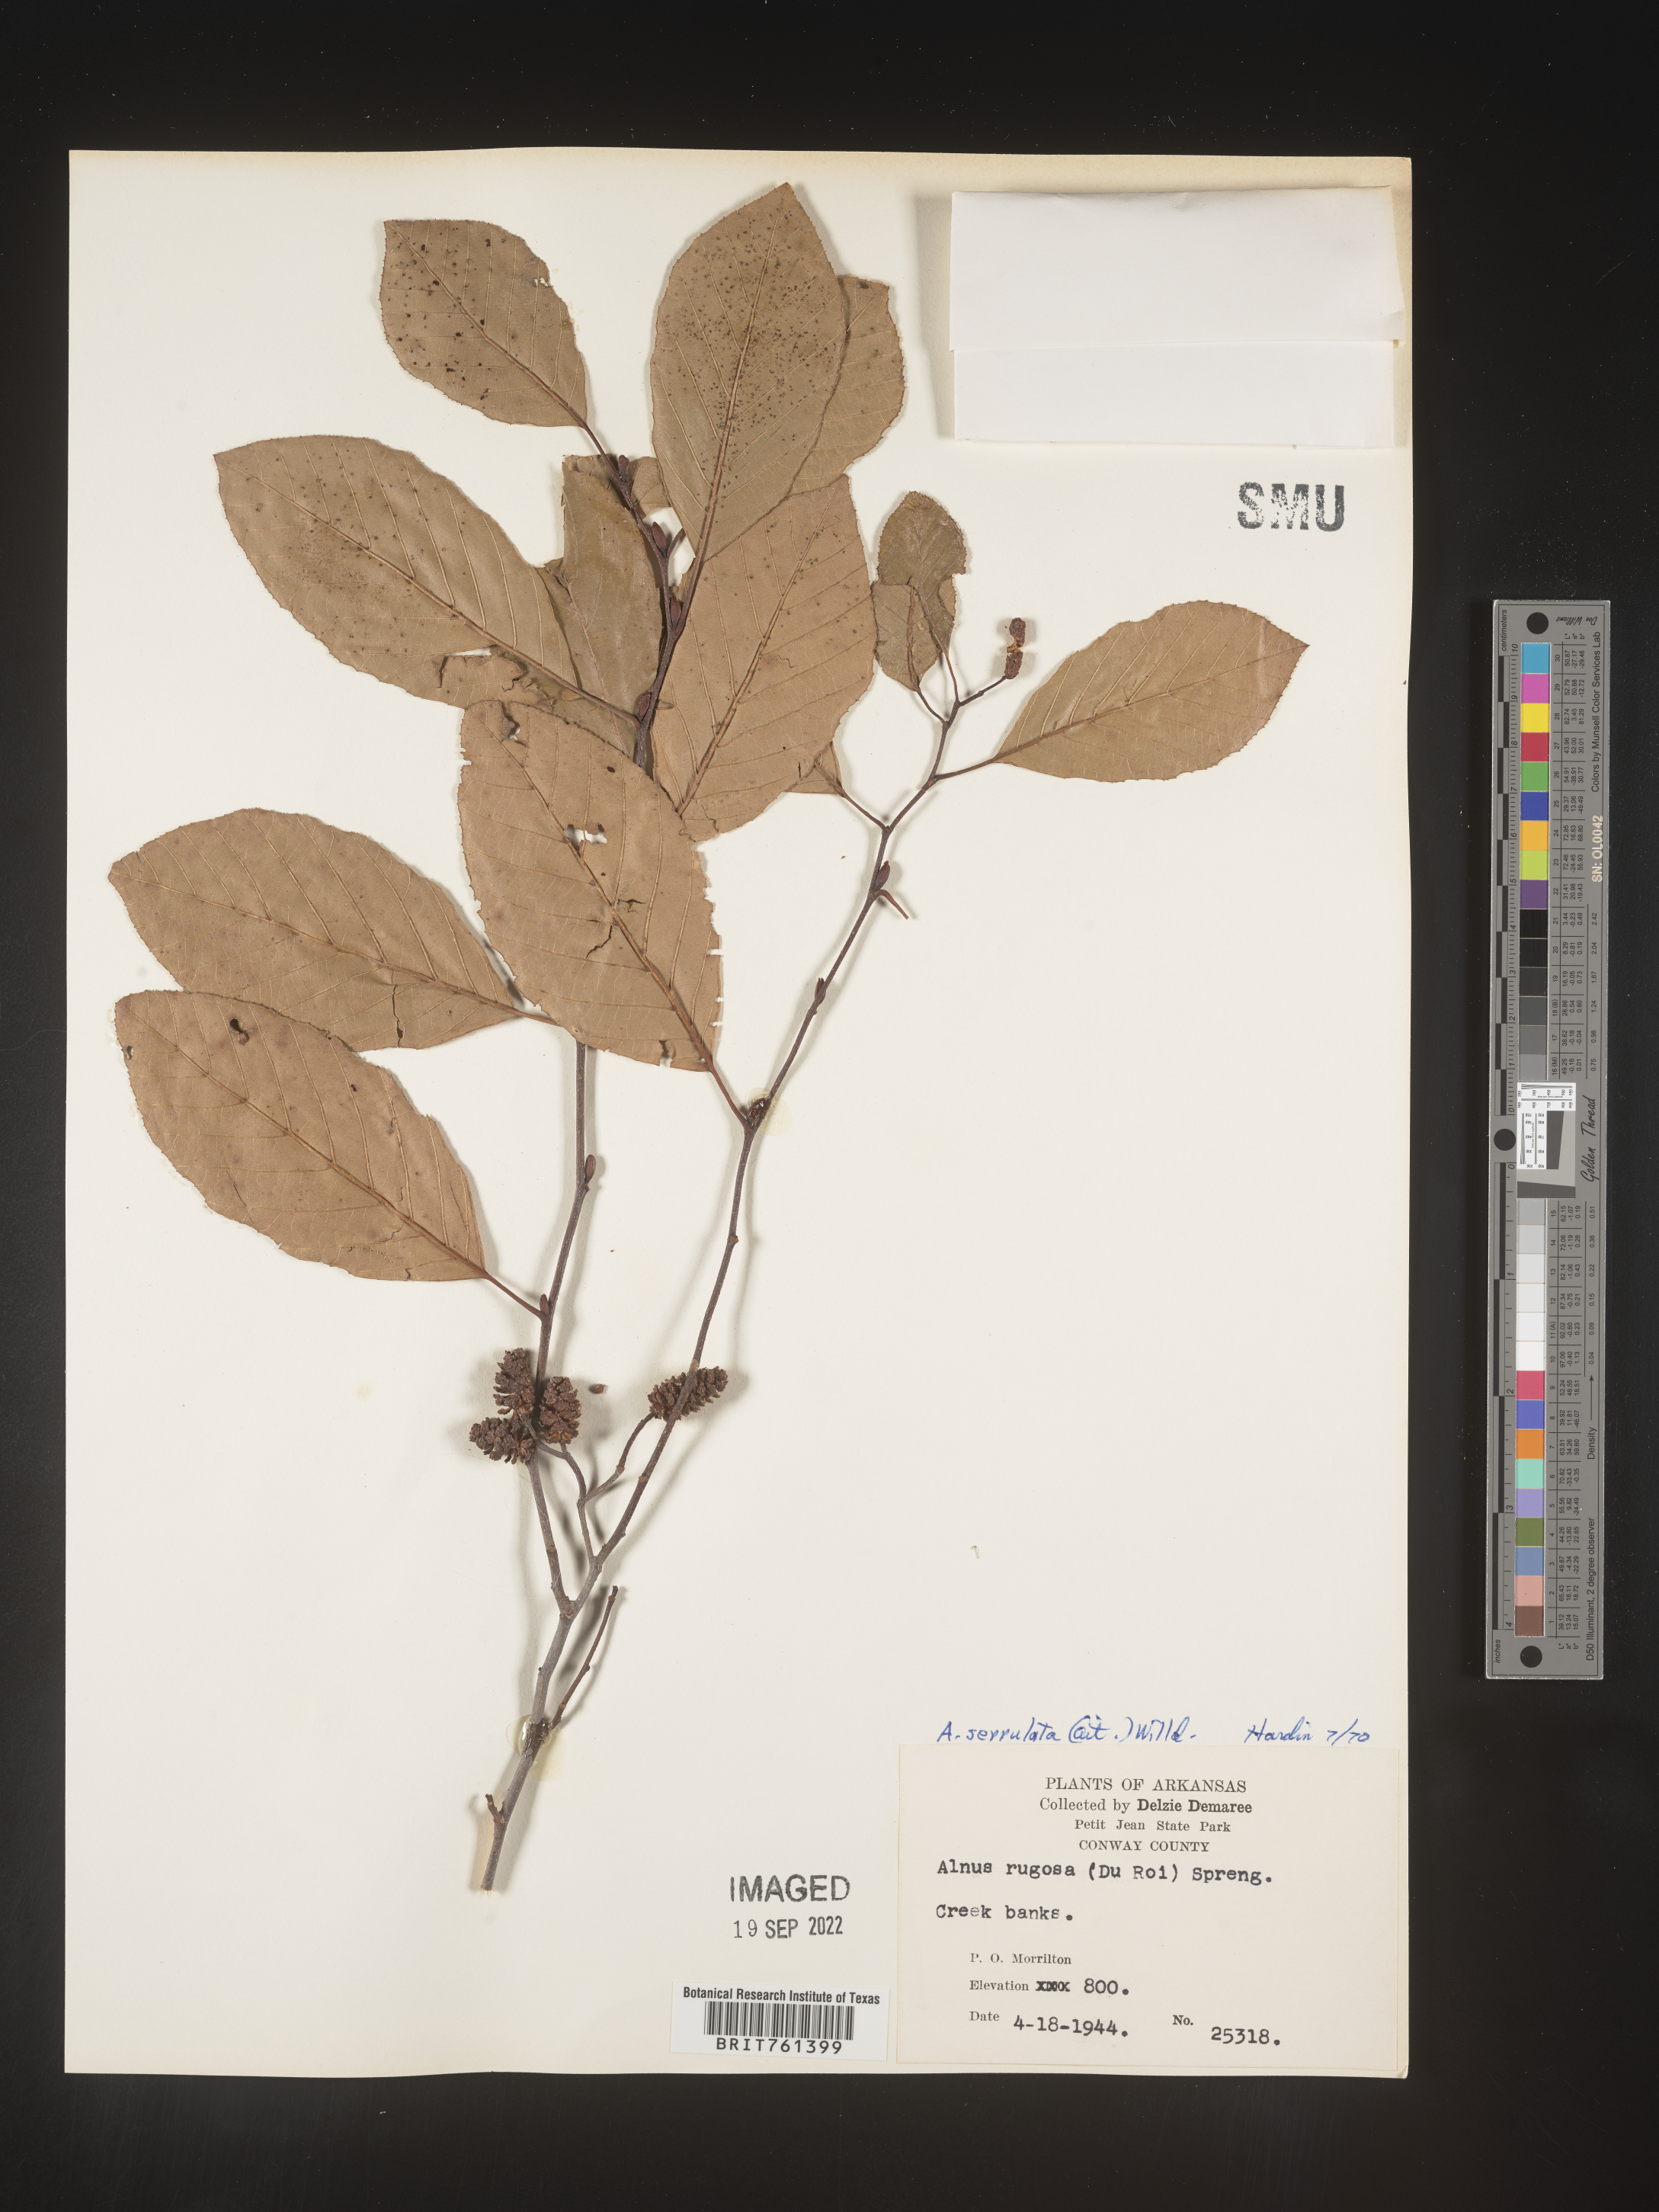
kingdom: Plantae
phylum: Tracheophyta
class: Magnoliopsida
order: Fagales
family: Betulaceae
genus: Alnus
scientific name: Alnus serrulata
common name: Hazel alder
